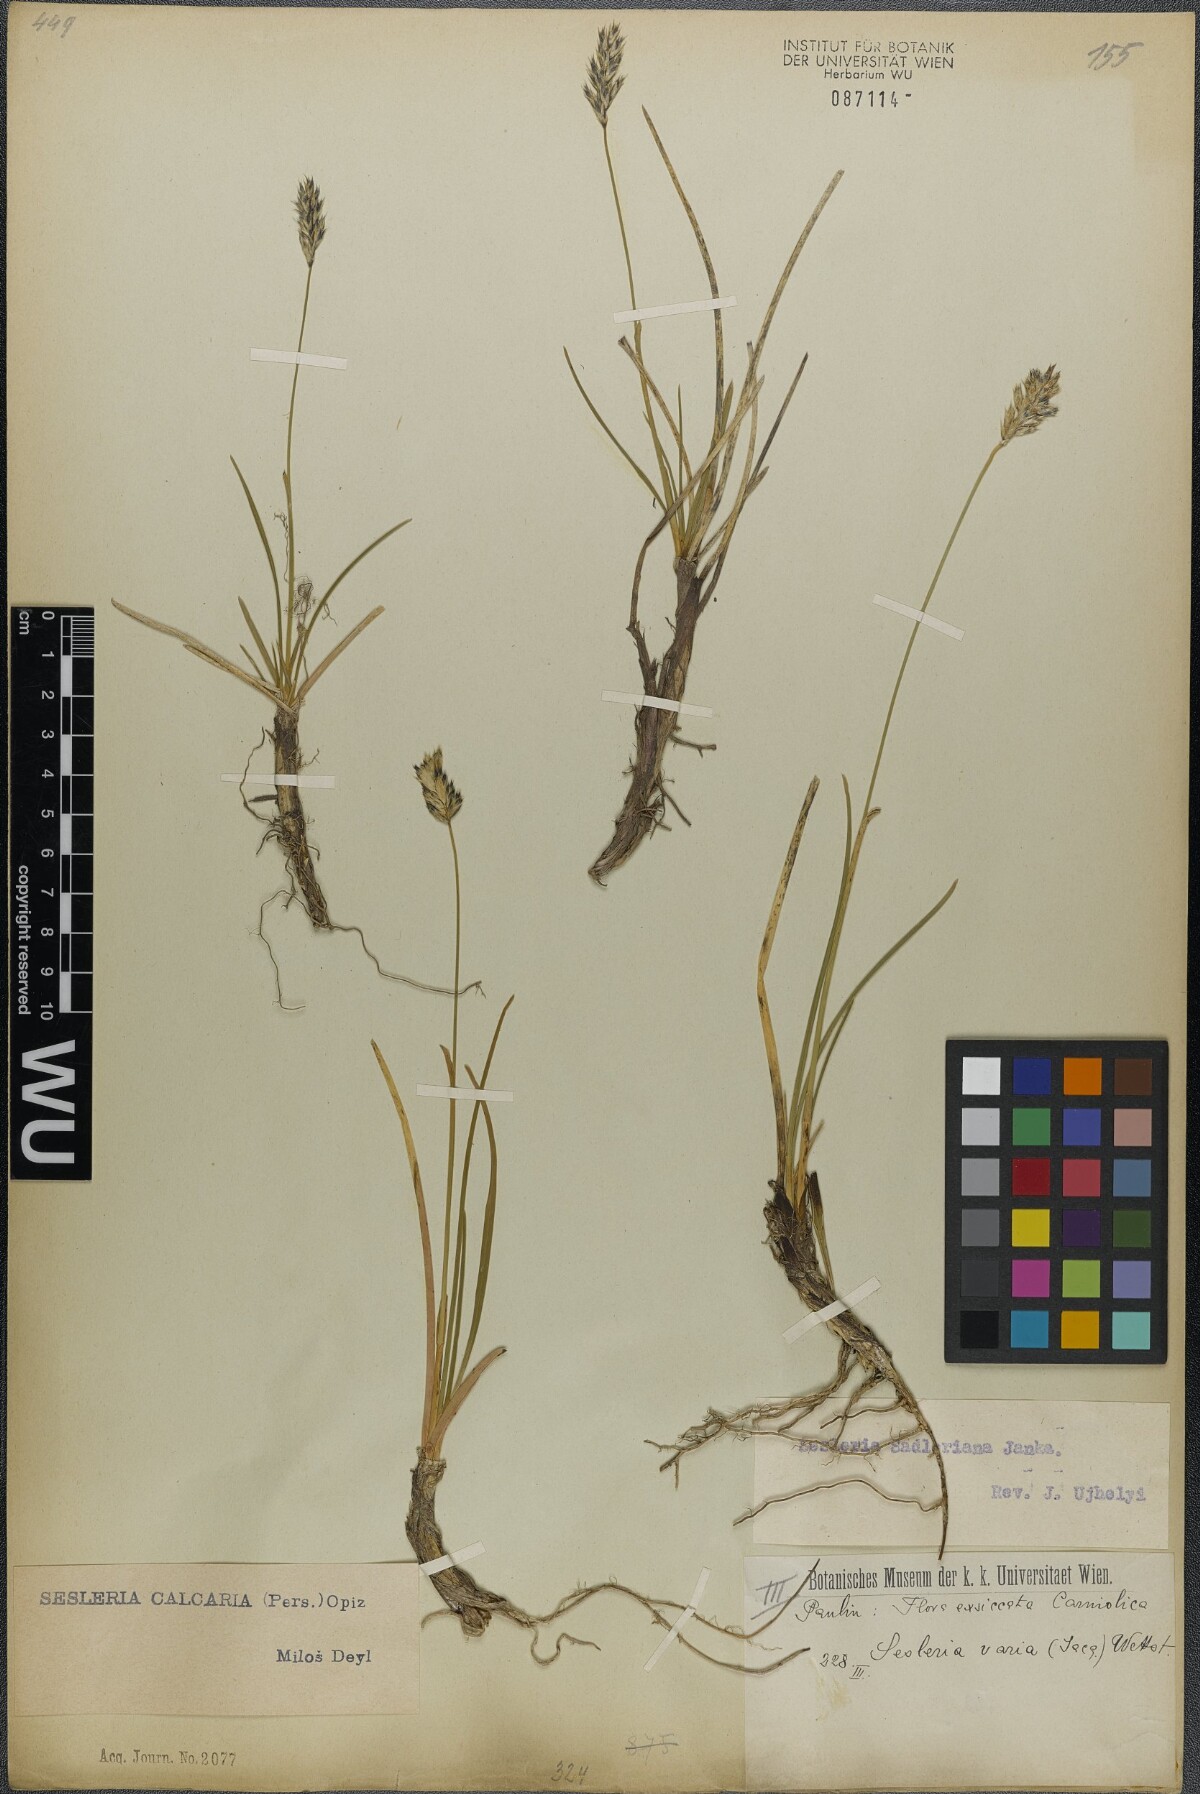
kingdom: Plantae
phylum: Tracheophyta
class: Liliopsida
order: Poales
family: Poaceae
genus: Sesleria
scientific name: Sesleria sadleriana
